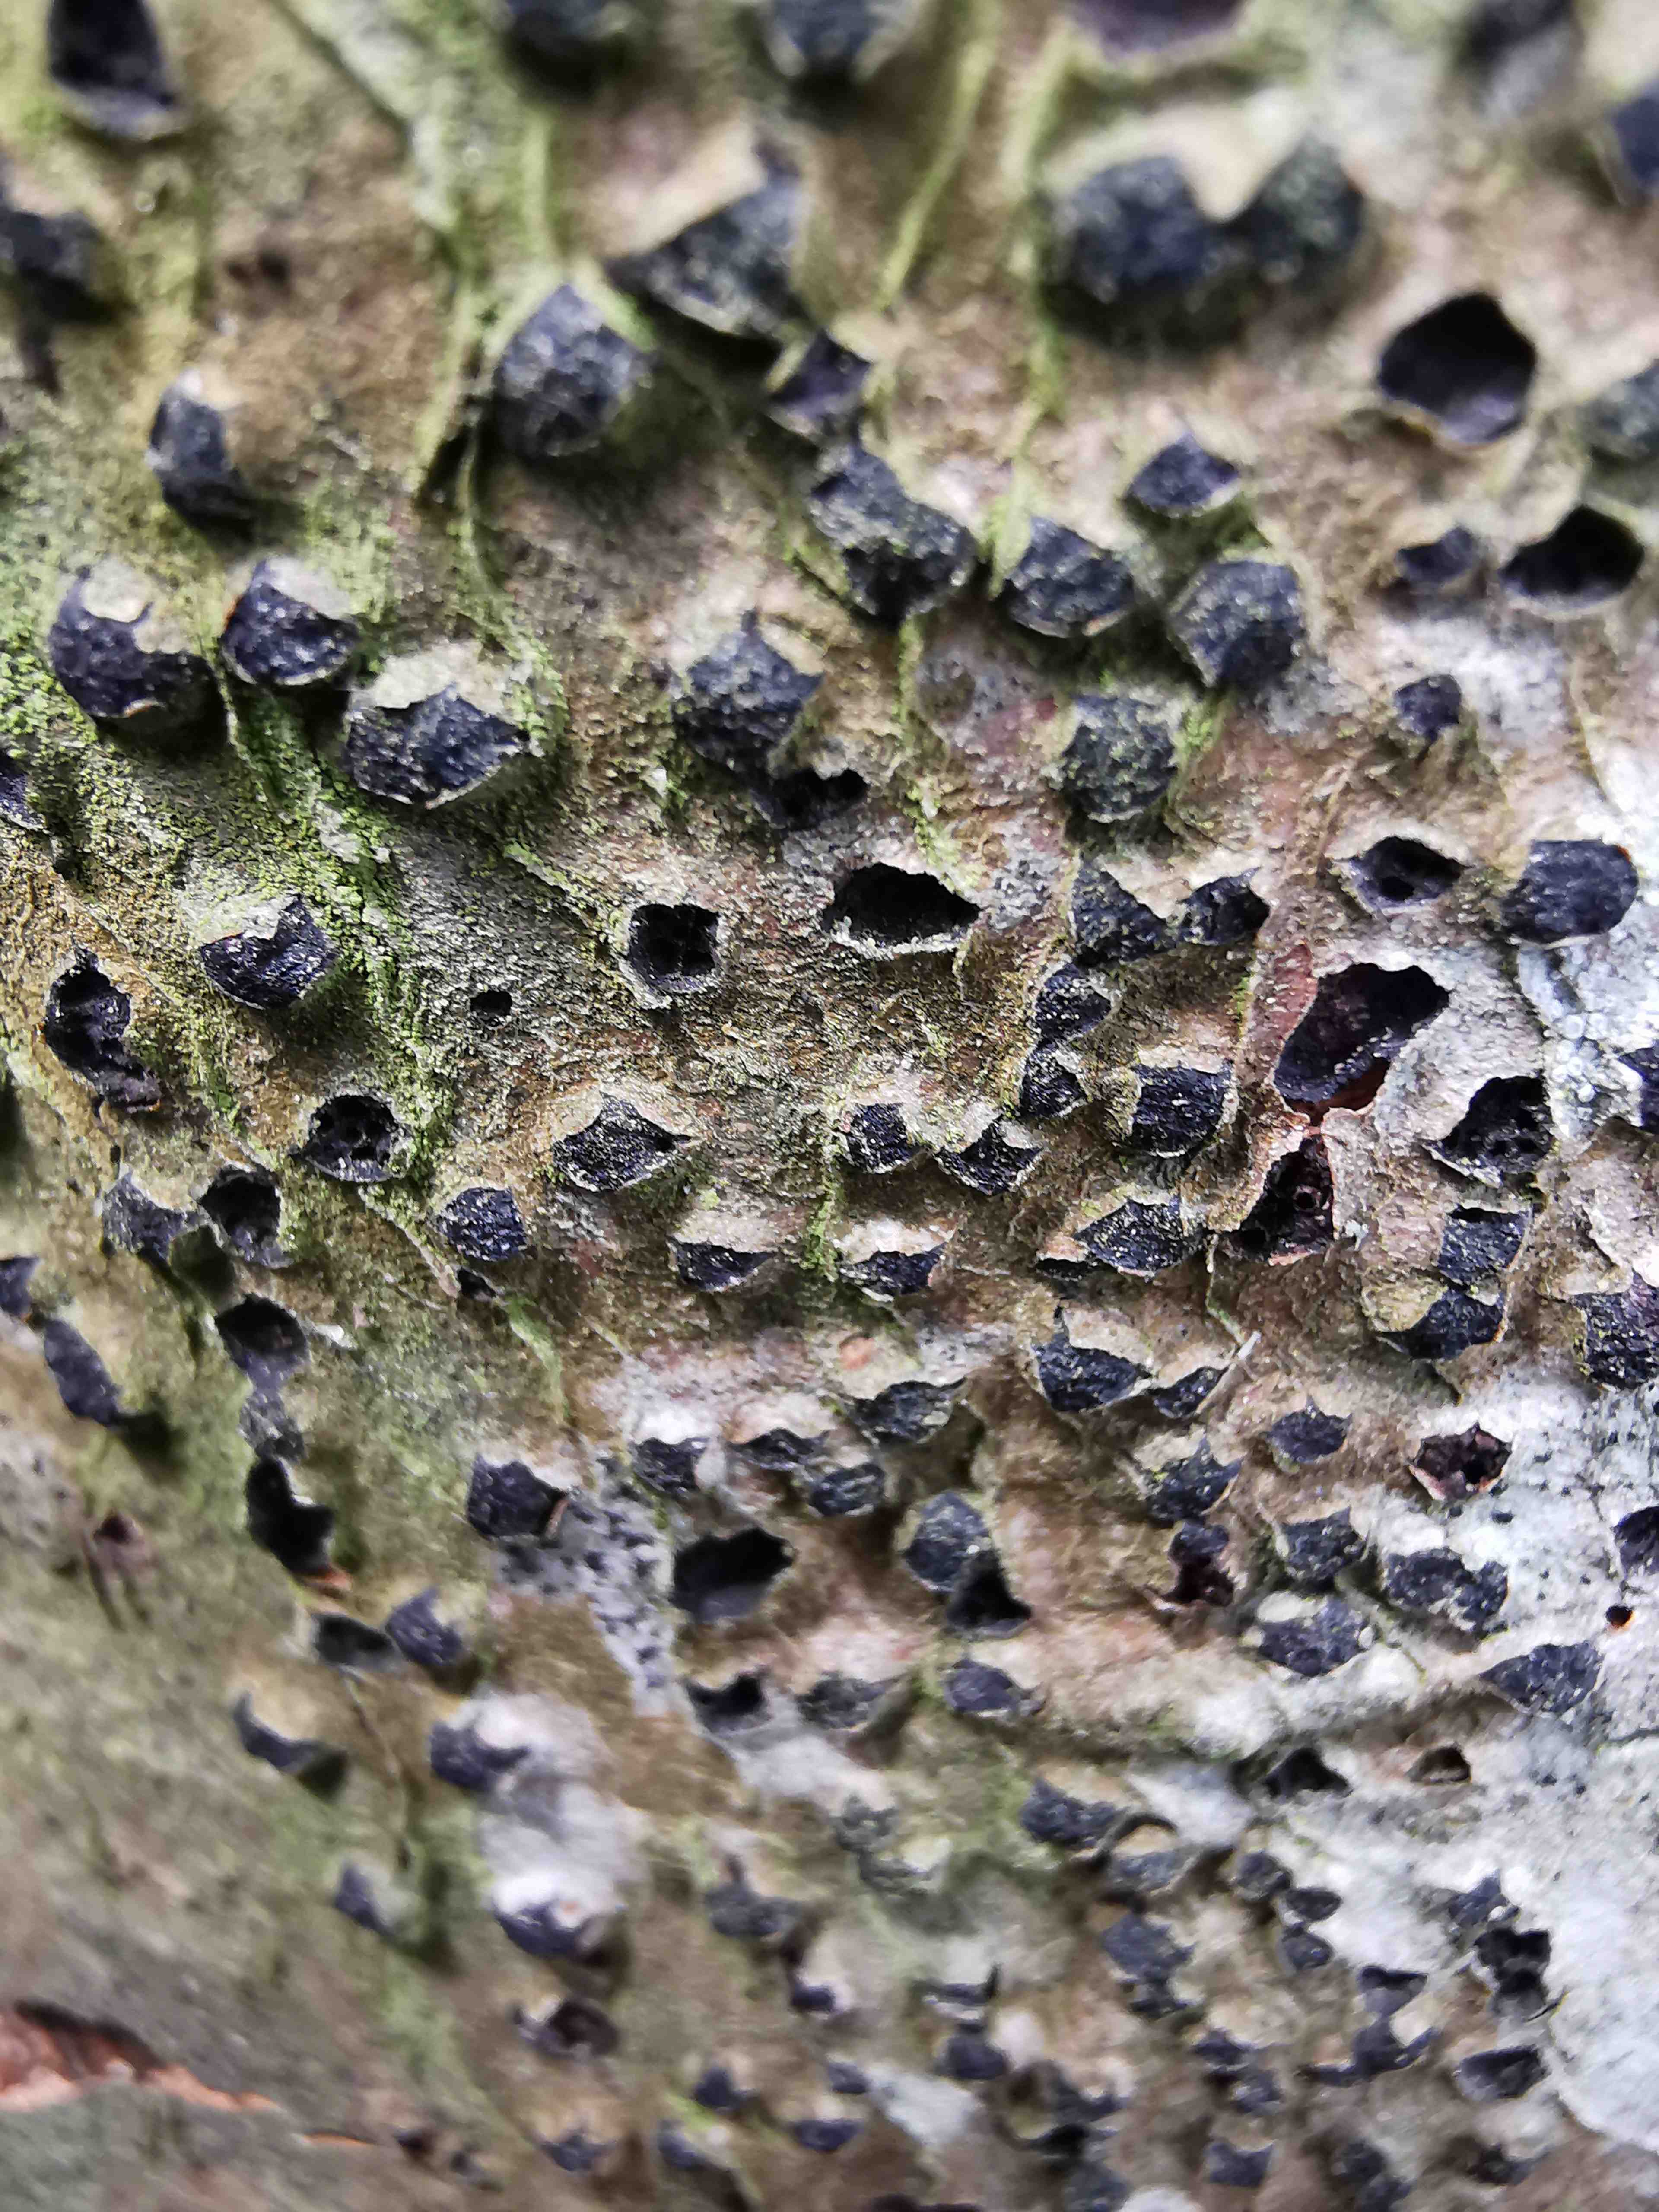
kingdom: Fungi
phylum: Ascomycota
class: Sordariomycetes
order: Xylariales
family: Diatrypaceae
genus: Diatrype
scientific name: Diatrype disciformis
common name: kant-kulskorpe
